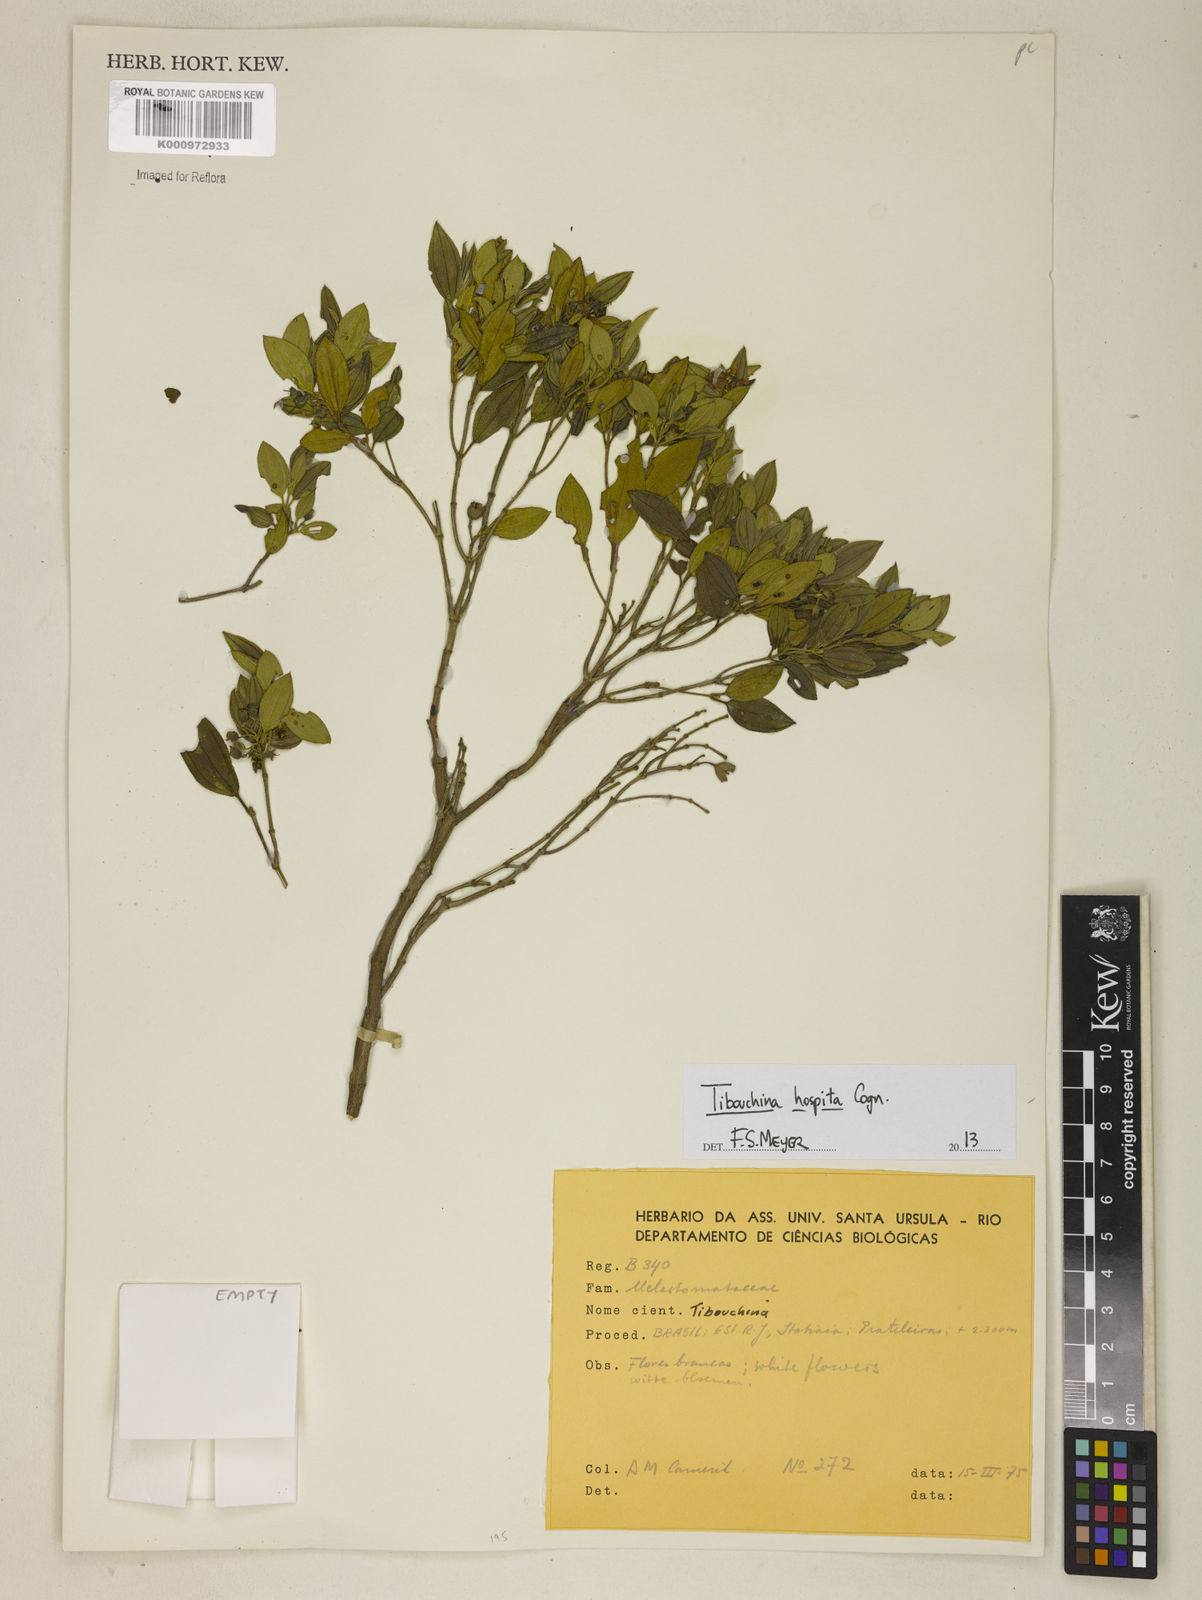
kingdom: Plantae
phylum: Tracheophyta
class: Magnoliopsida
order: Myrtales
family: Melastomataceae
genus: Pleroma
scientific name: Pleroma hospitum
